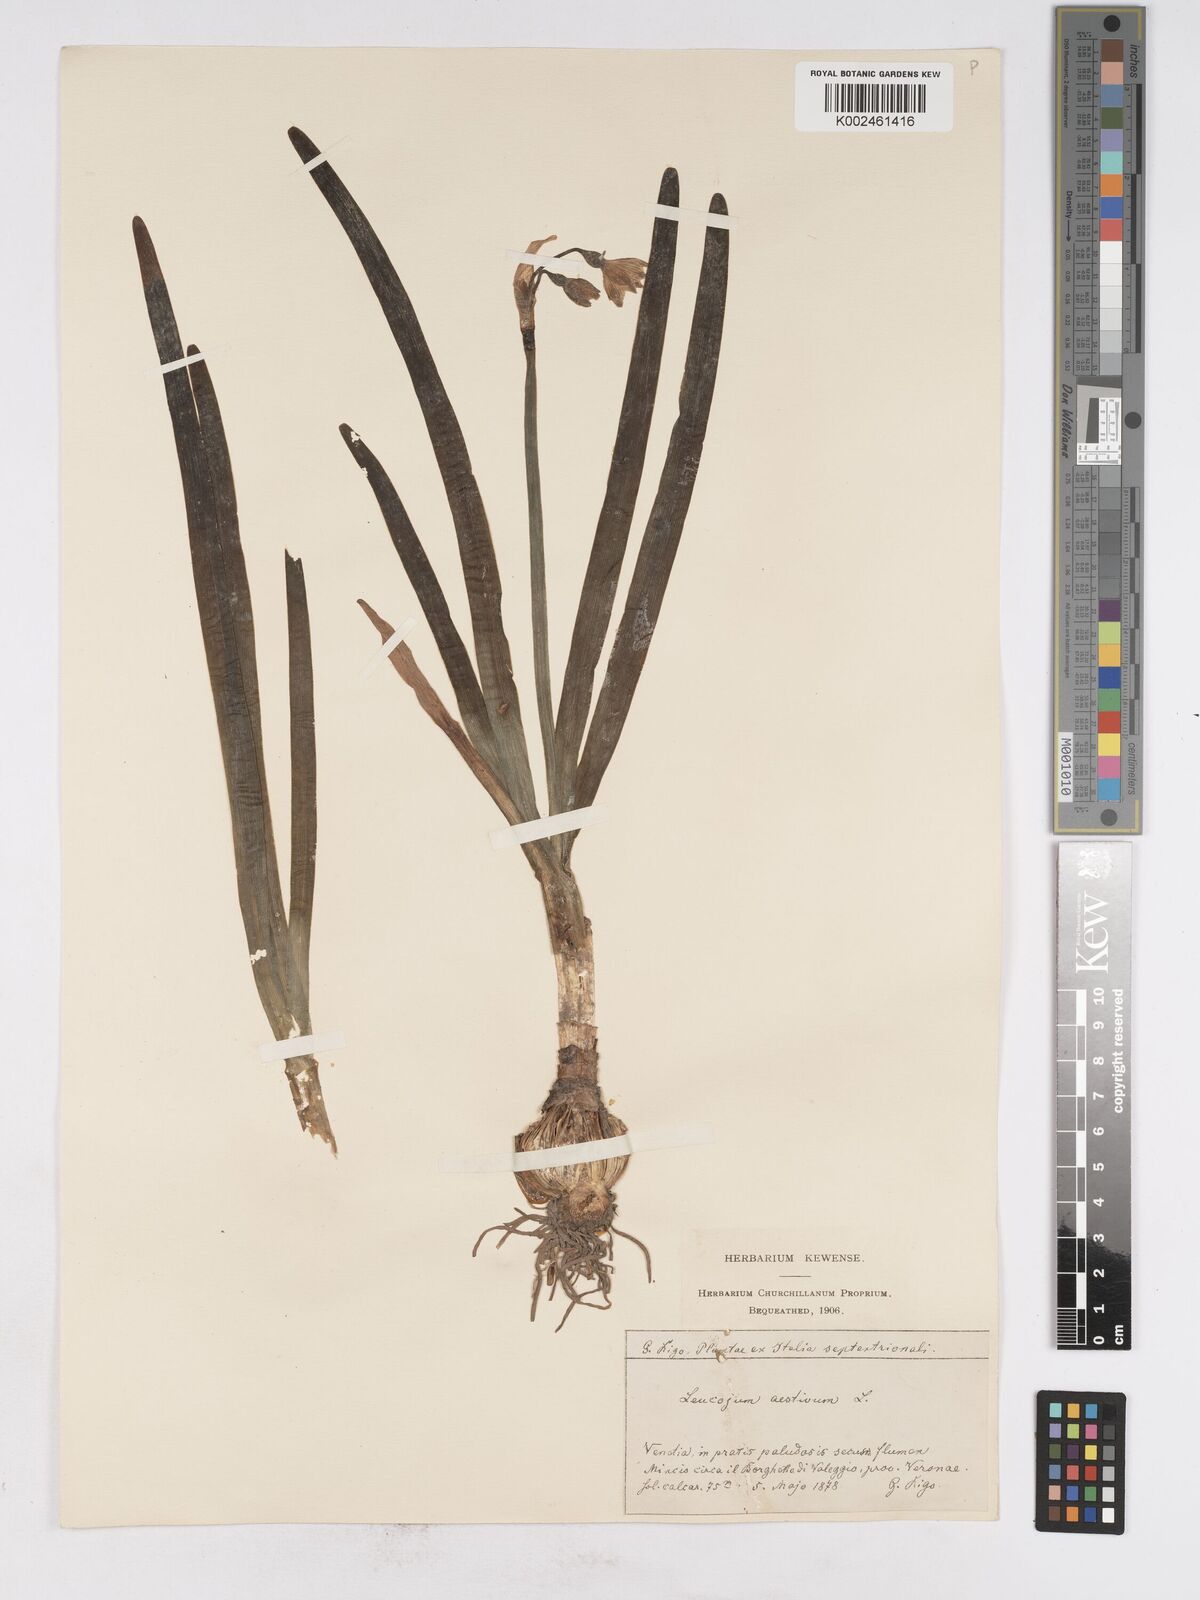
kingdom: Plantae
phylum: Tracheophyta
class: Liliopsida
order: Asparagales
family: Amaryllidaceae
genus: Leucojum
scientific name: Leucojum aestivum
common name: Summer snowflake
